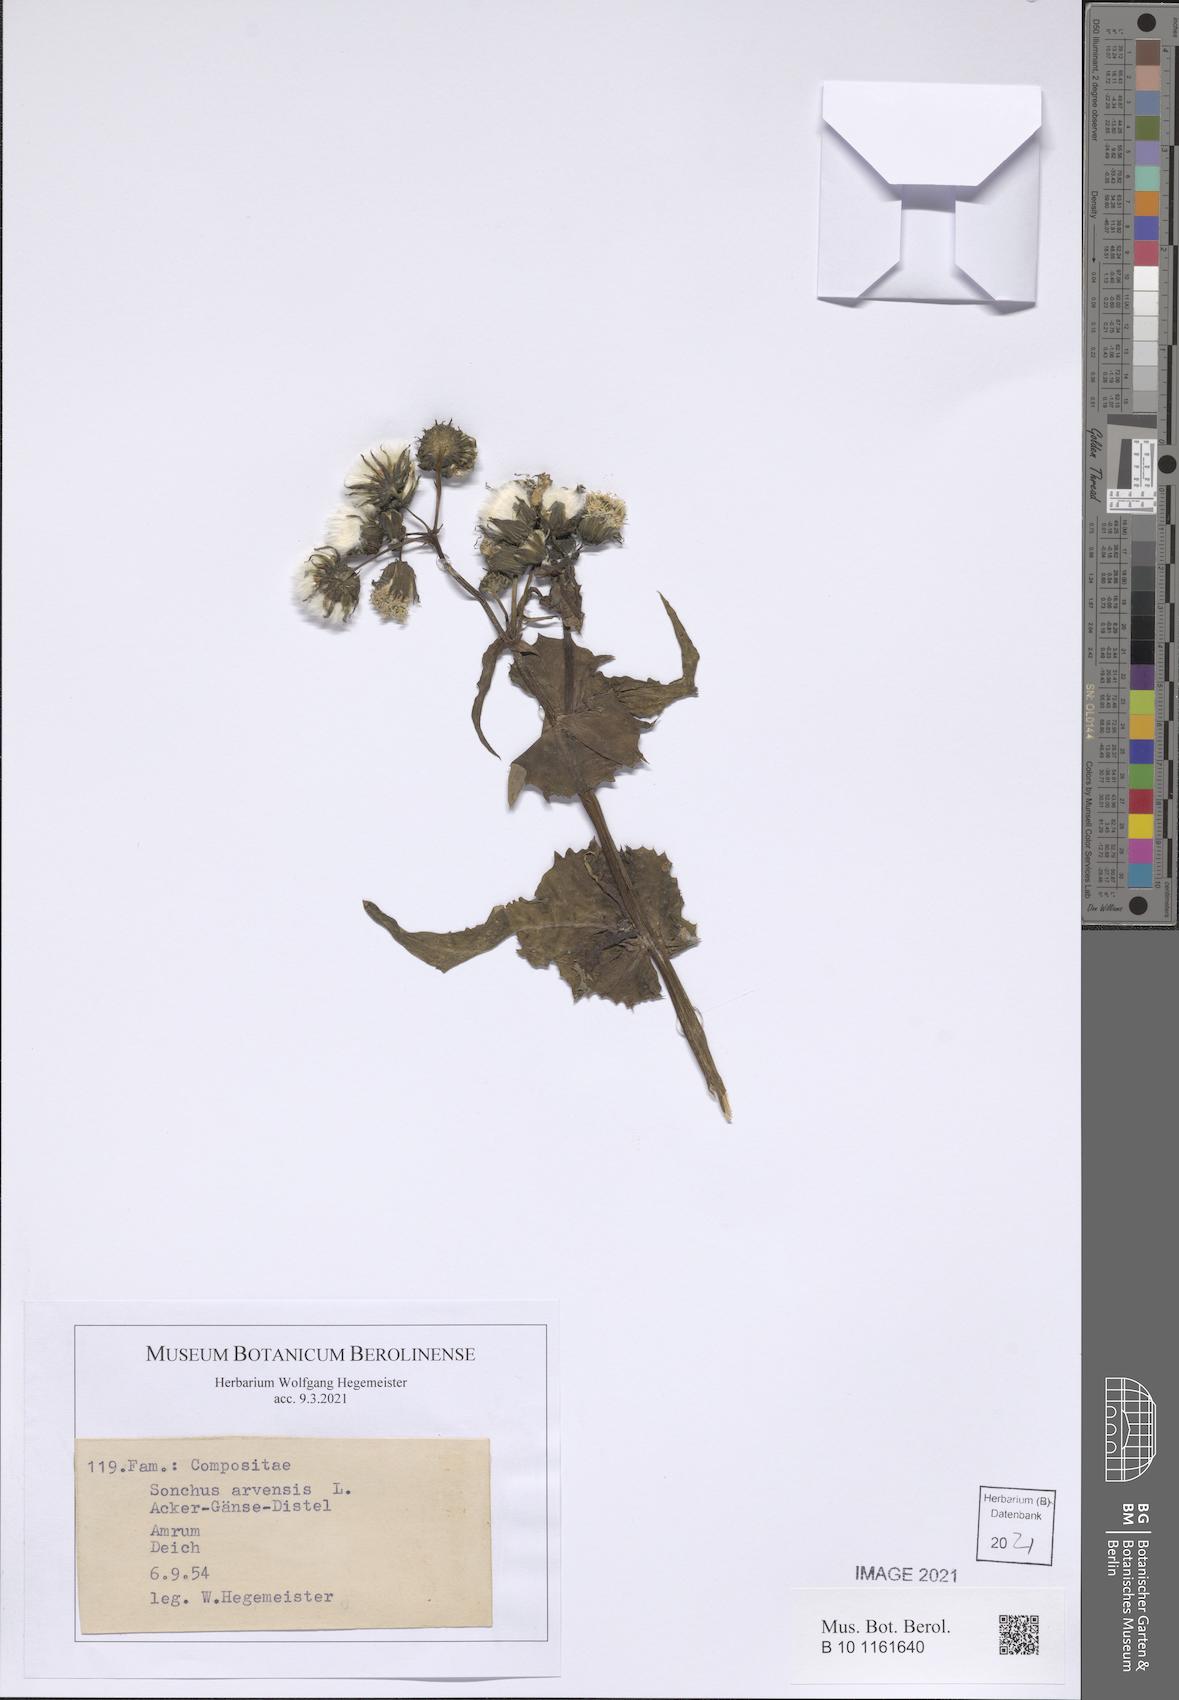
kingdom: Plantae
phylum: Tracheophyta
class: Magnoliopsida
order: Asterales
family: Asteraceae
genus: Sonchus
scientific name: Sonchus arvensis
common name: Perennial sow-thistle
